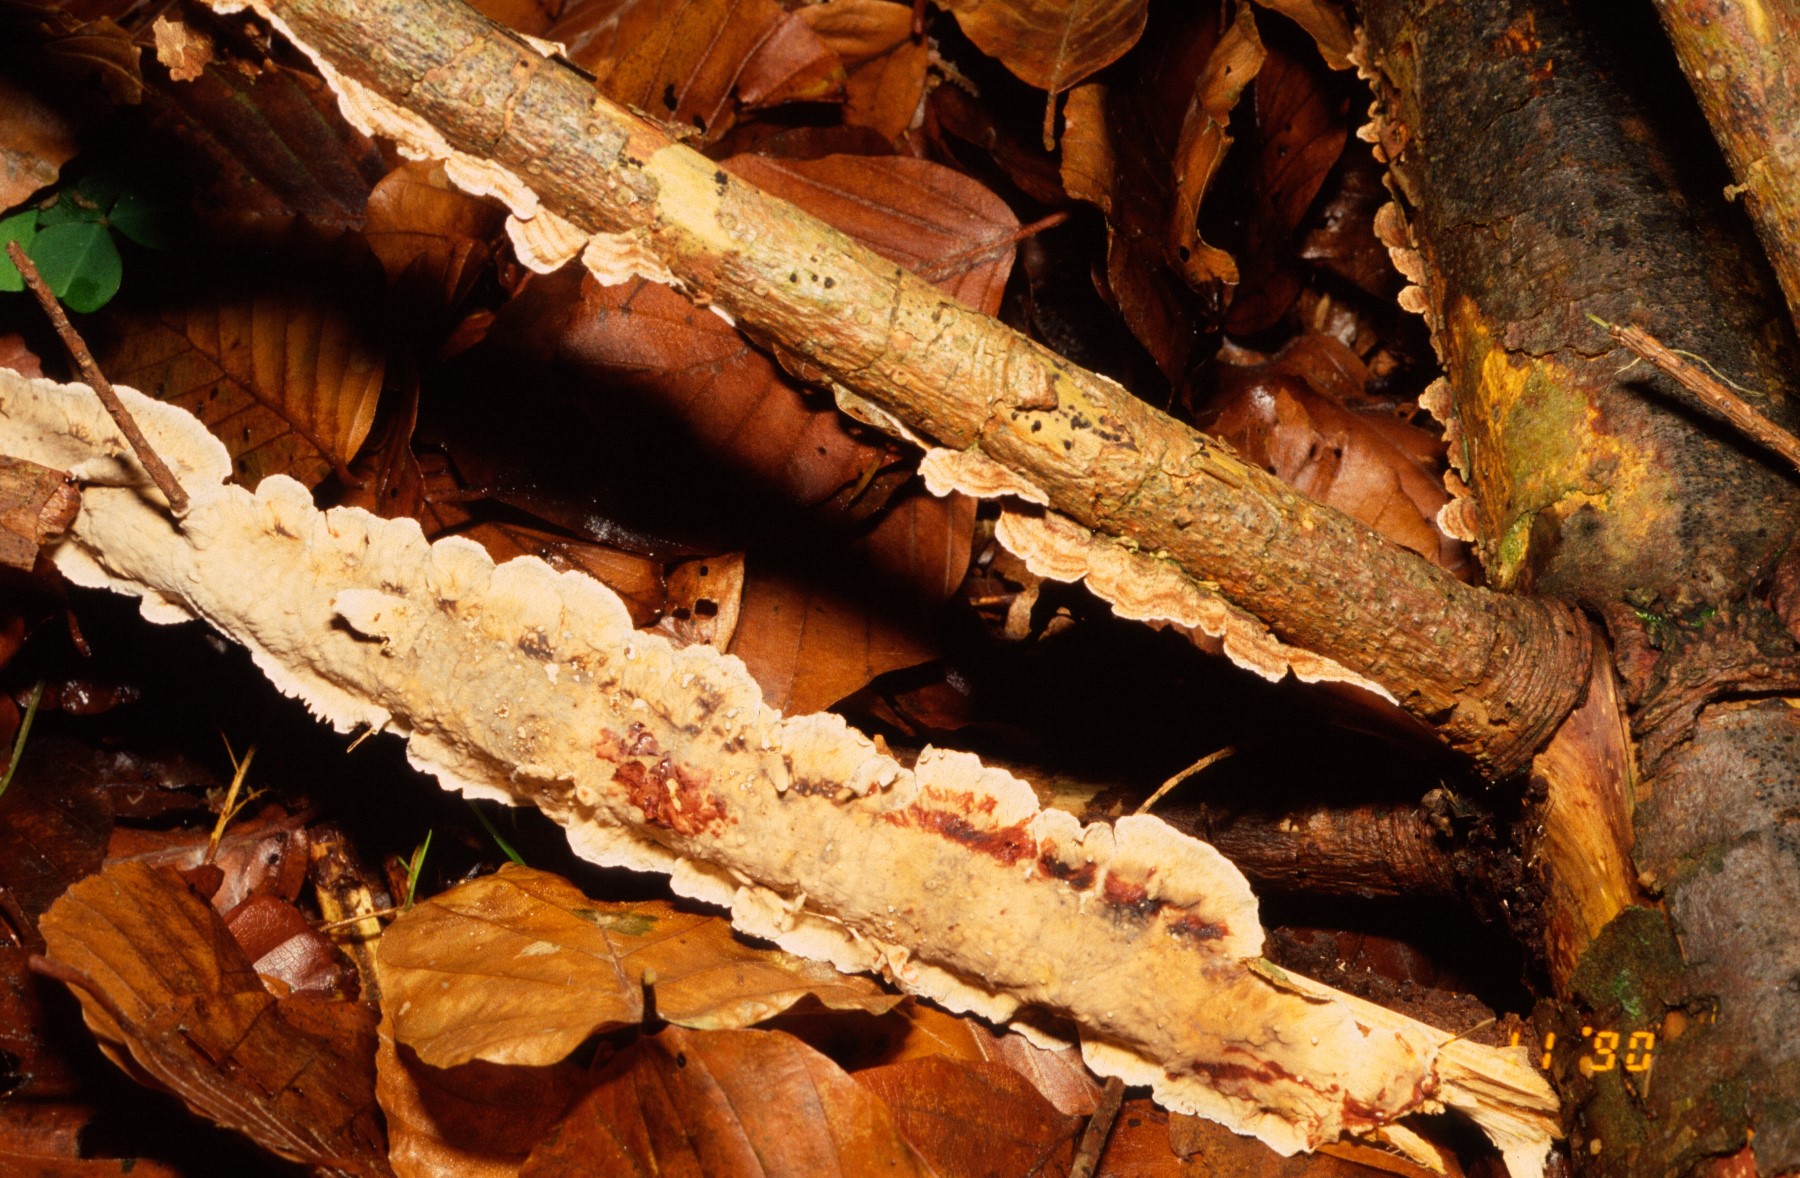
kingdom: Fungi
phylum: Basidiomycota
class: Agaricomycetes
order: Russulales
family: Stereaceae
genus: Stereum
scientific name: Stereum sanguinolentum
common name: blødende lædersvamp
